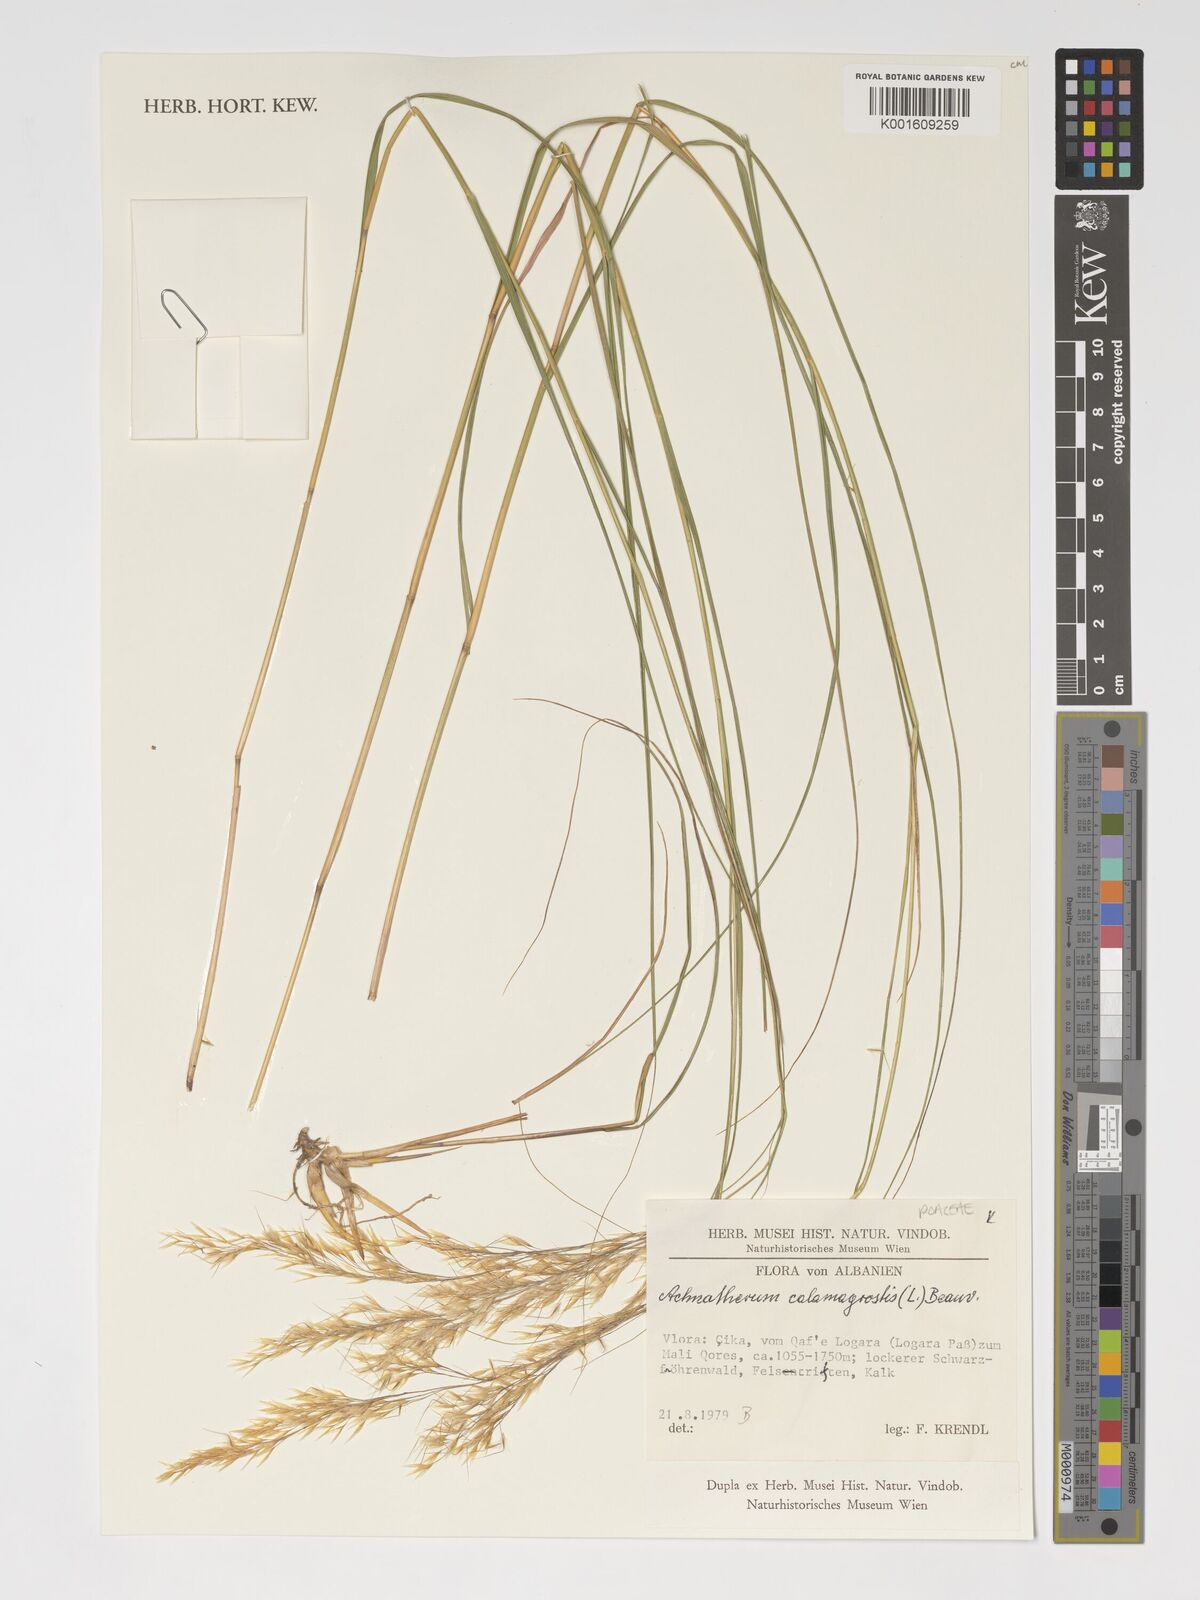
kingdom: Plantae
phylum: Tracheophyta
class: Liliopsida
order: Poales
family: Poaceae
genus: Achnatherum
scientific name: Achnatherum calamagrostis
